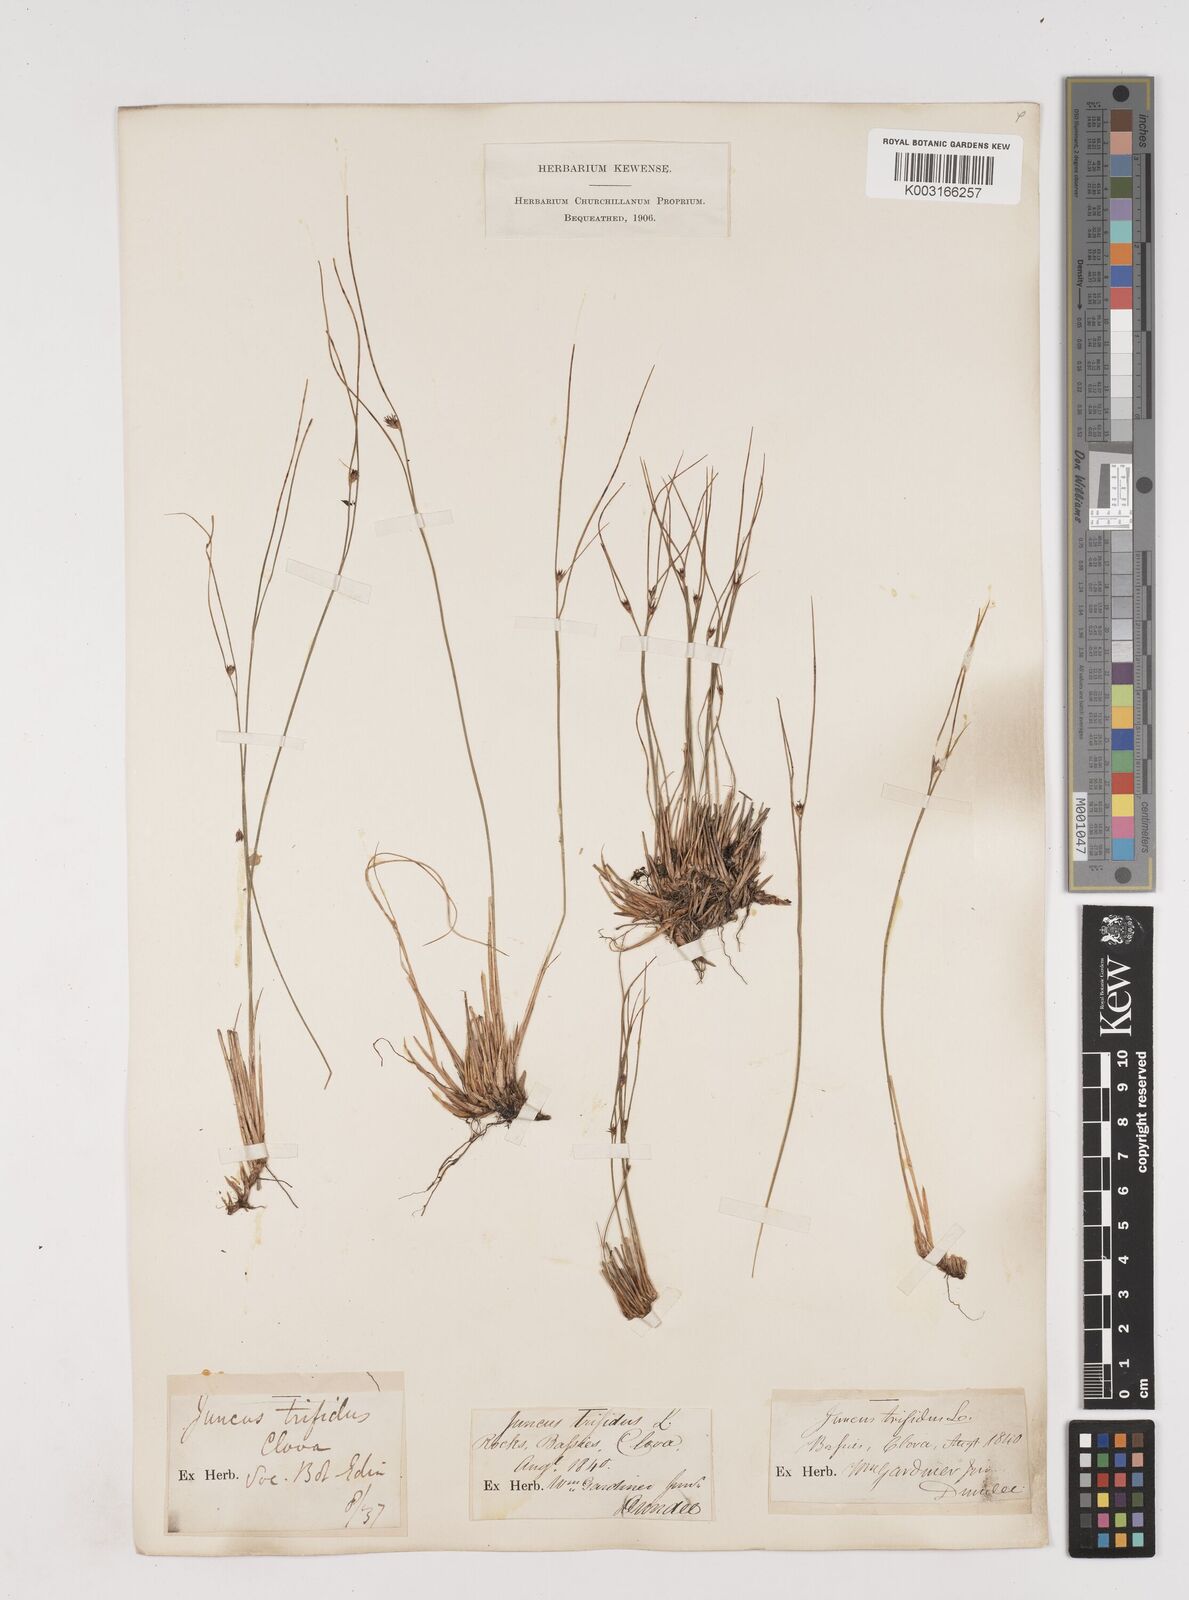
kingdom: Plantae
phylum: Tracheophyta
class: Liliopsida
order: Poales
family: Juncaceae
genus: Oreojuncus
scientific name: Oreojuncus trifidus
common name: Highland rush
